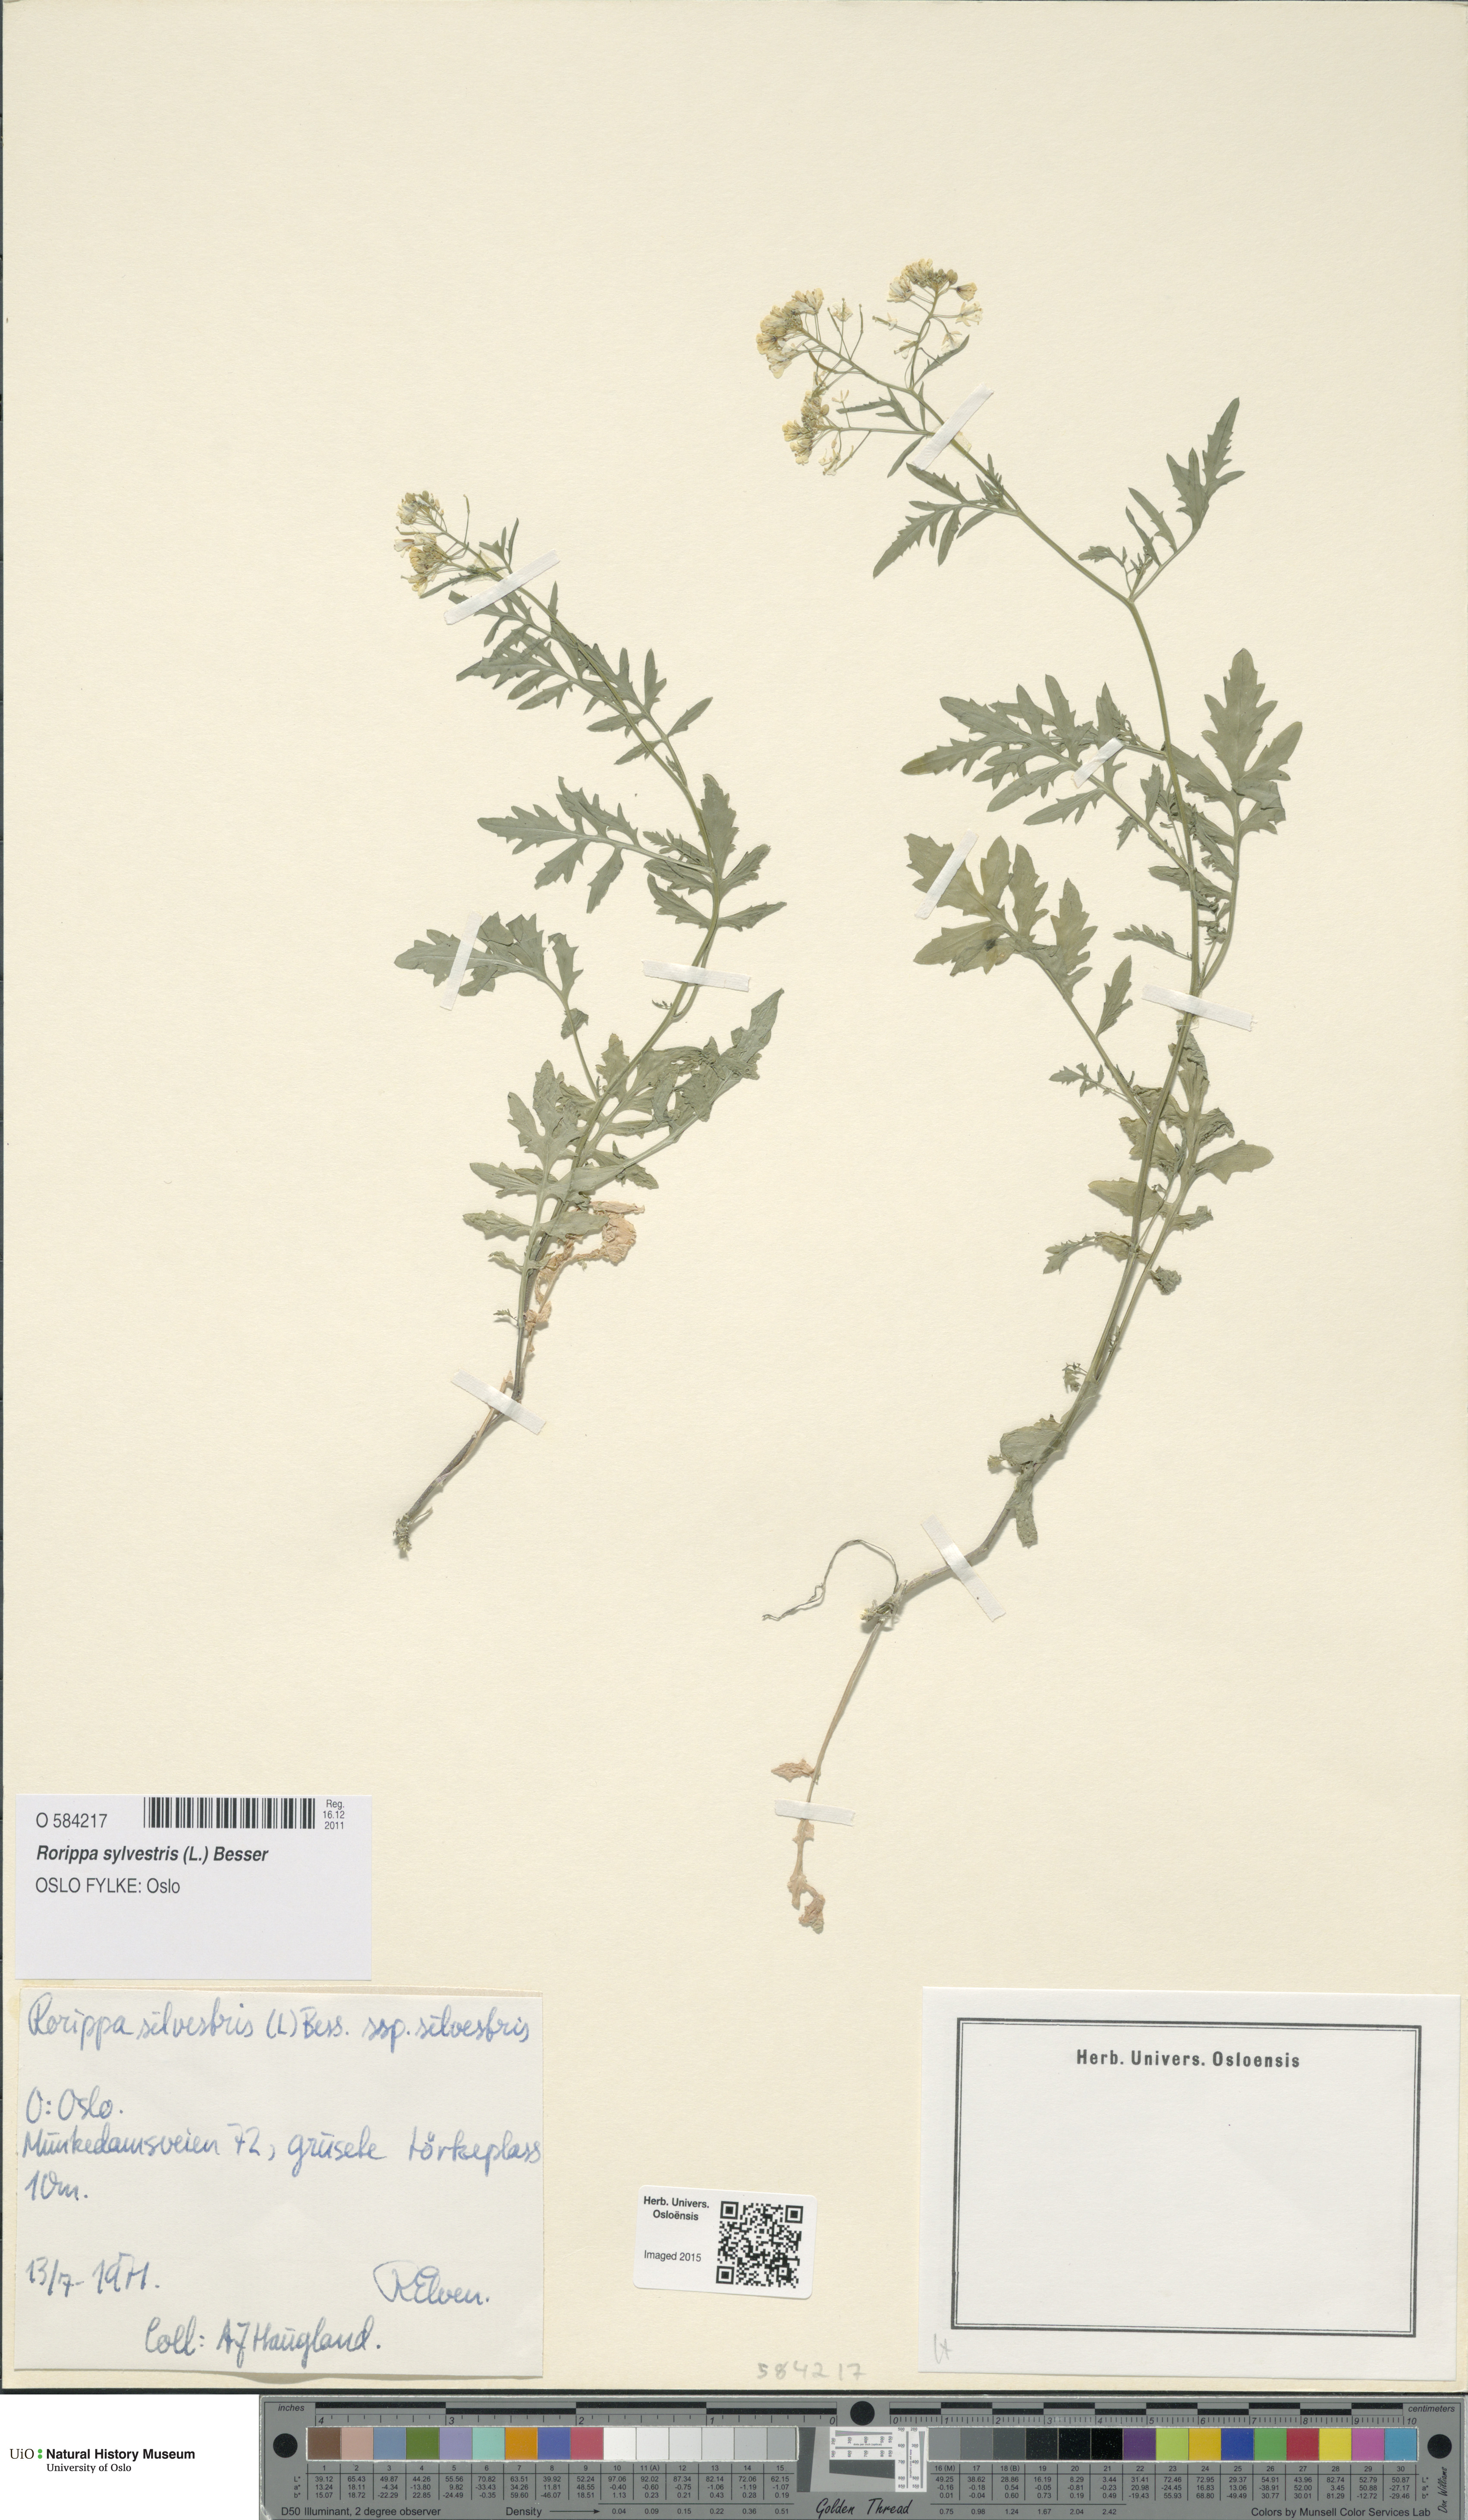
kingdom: Plantae
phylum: Tracheophyta
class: Magnoliopsida
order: Brassicales
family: Brassicaceae
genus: Rorippa
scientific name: Rorippa sylvestris
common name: Creeping yellowcress
